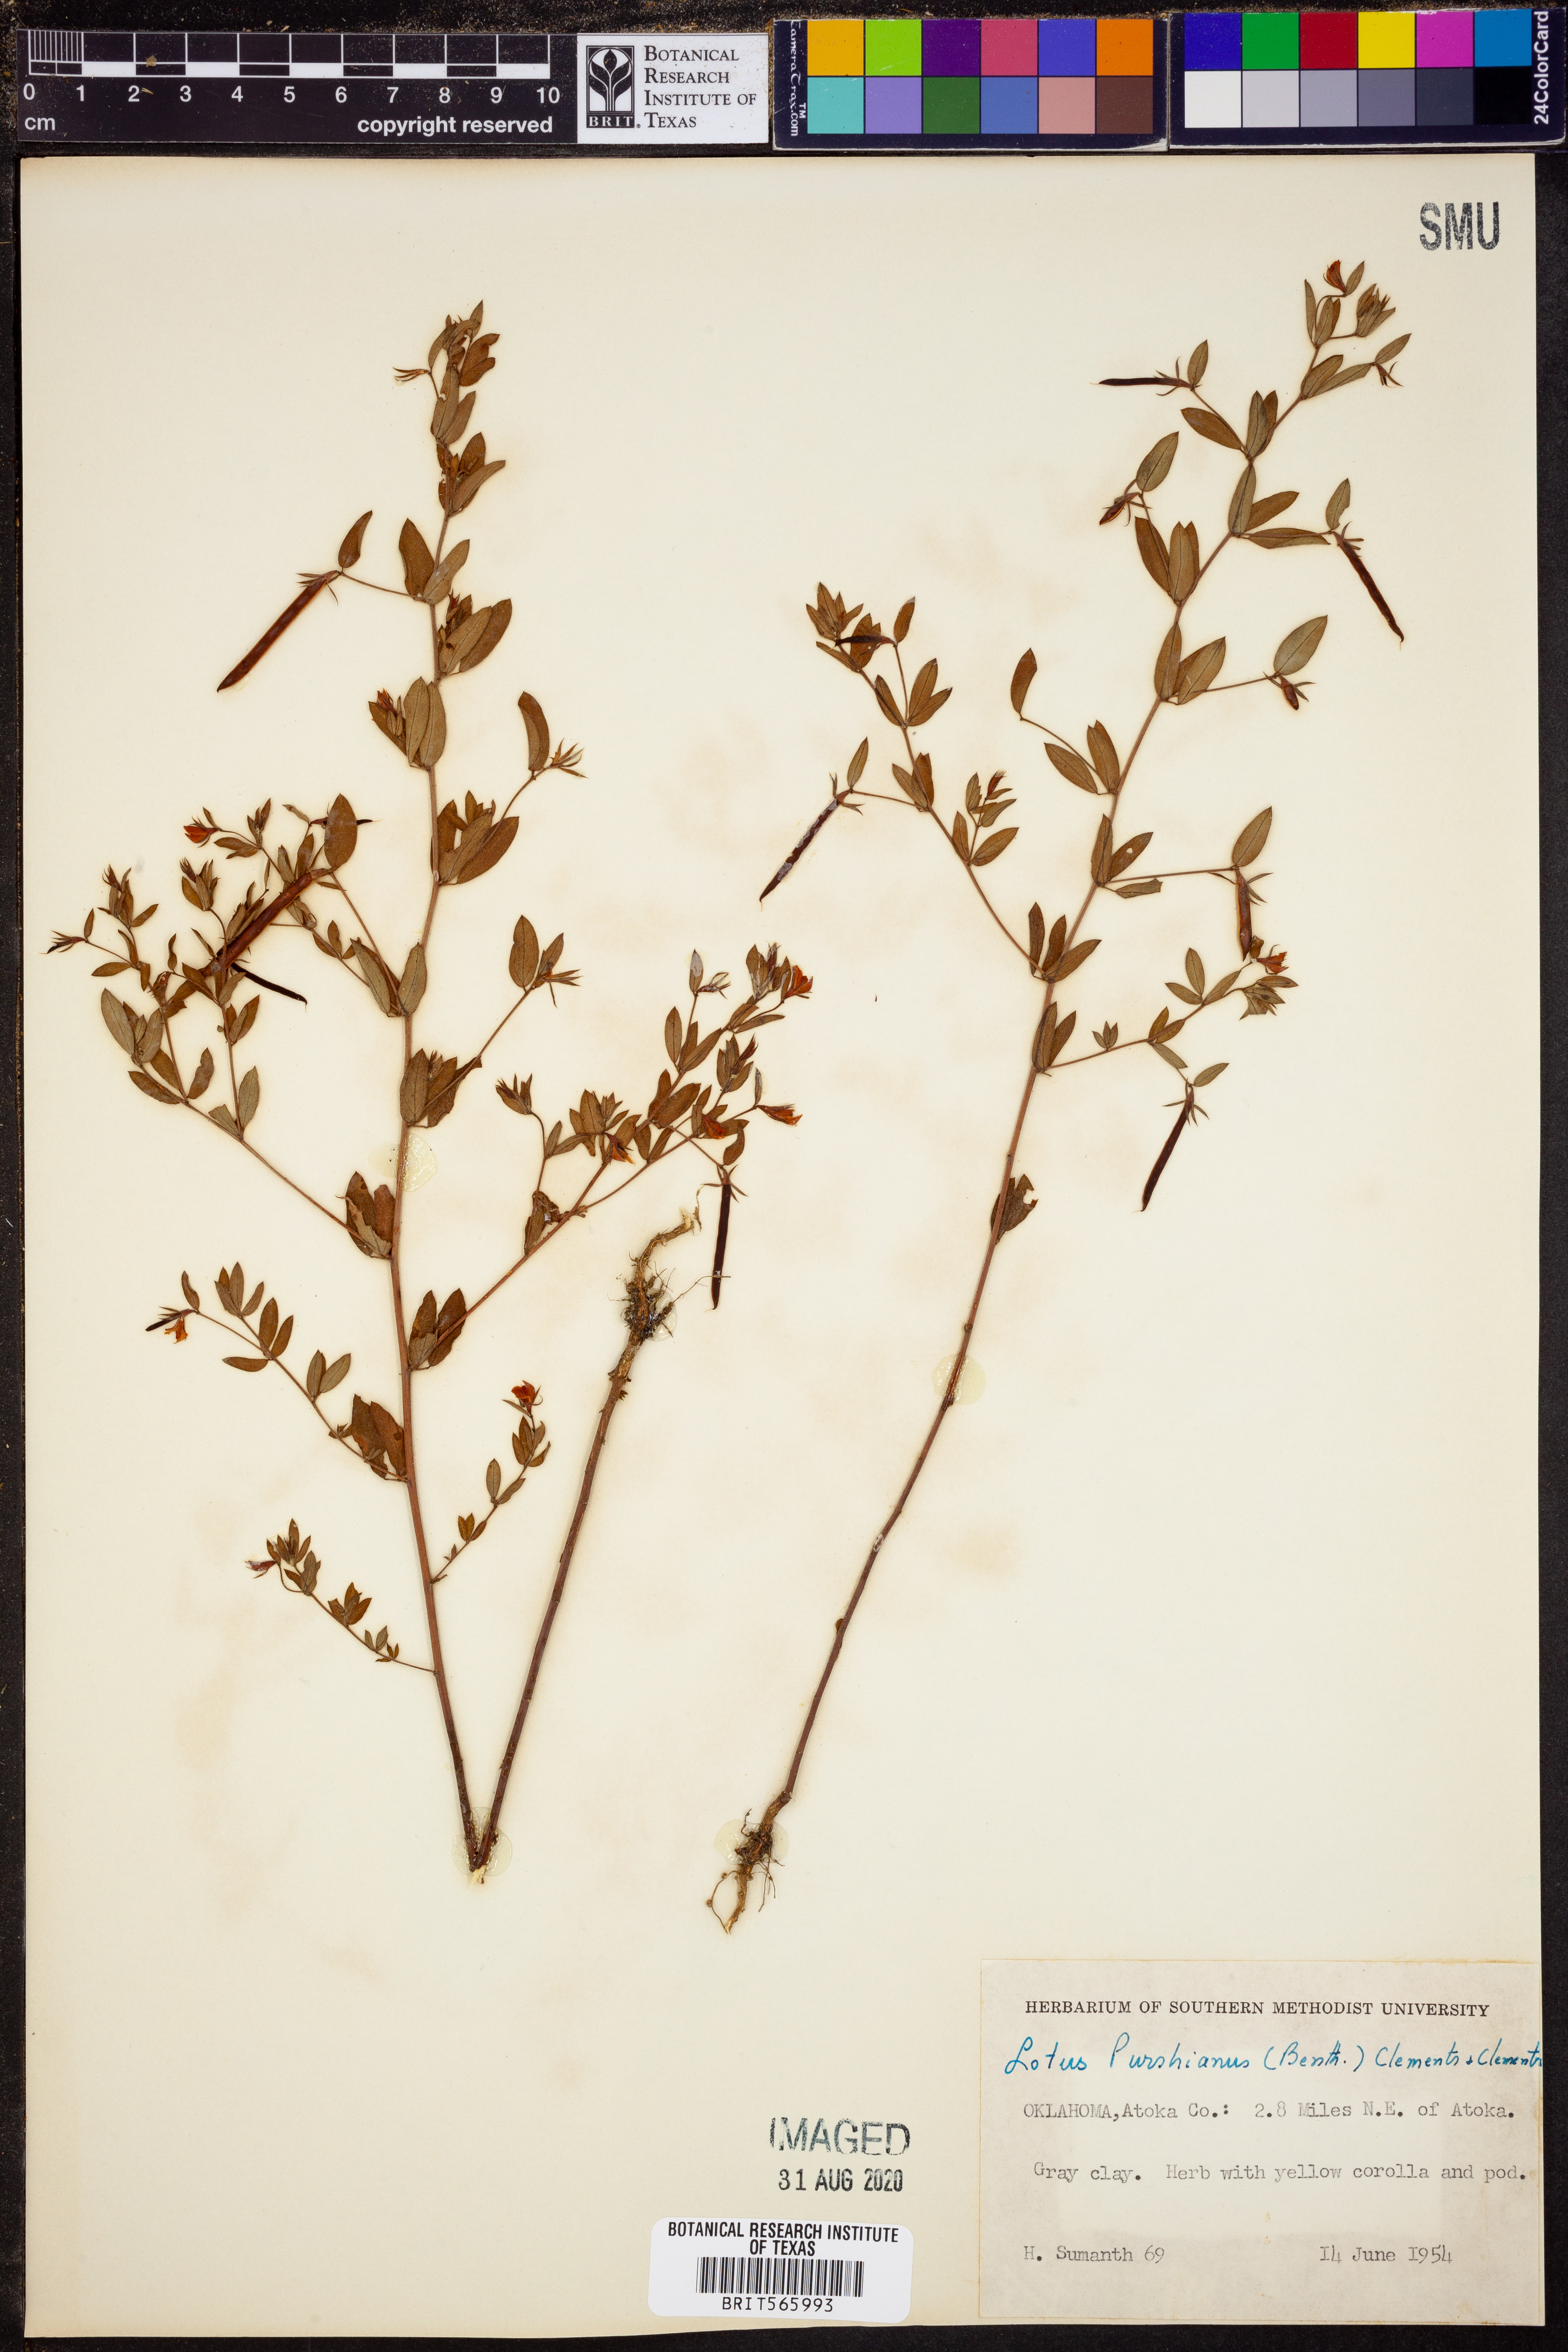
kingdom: Plantae
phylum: Tracheophyta
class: Magnoliopsida
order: Fabales
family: Fabaceae
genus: Acmispon
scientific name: Acmispon americanus
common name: American bird's-foot trefoil
